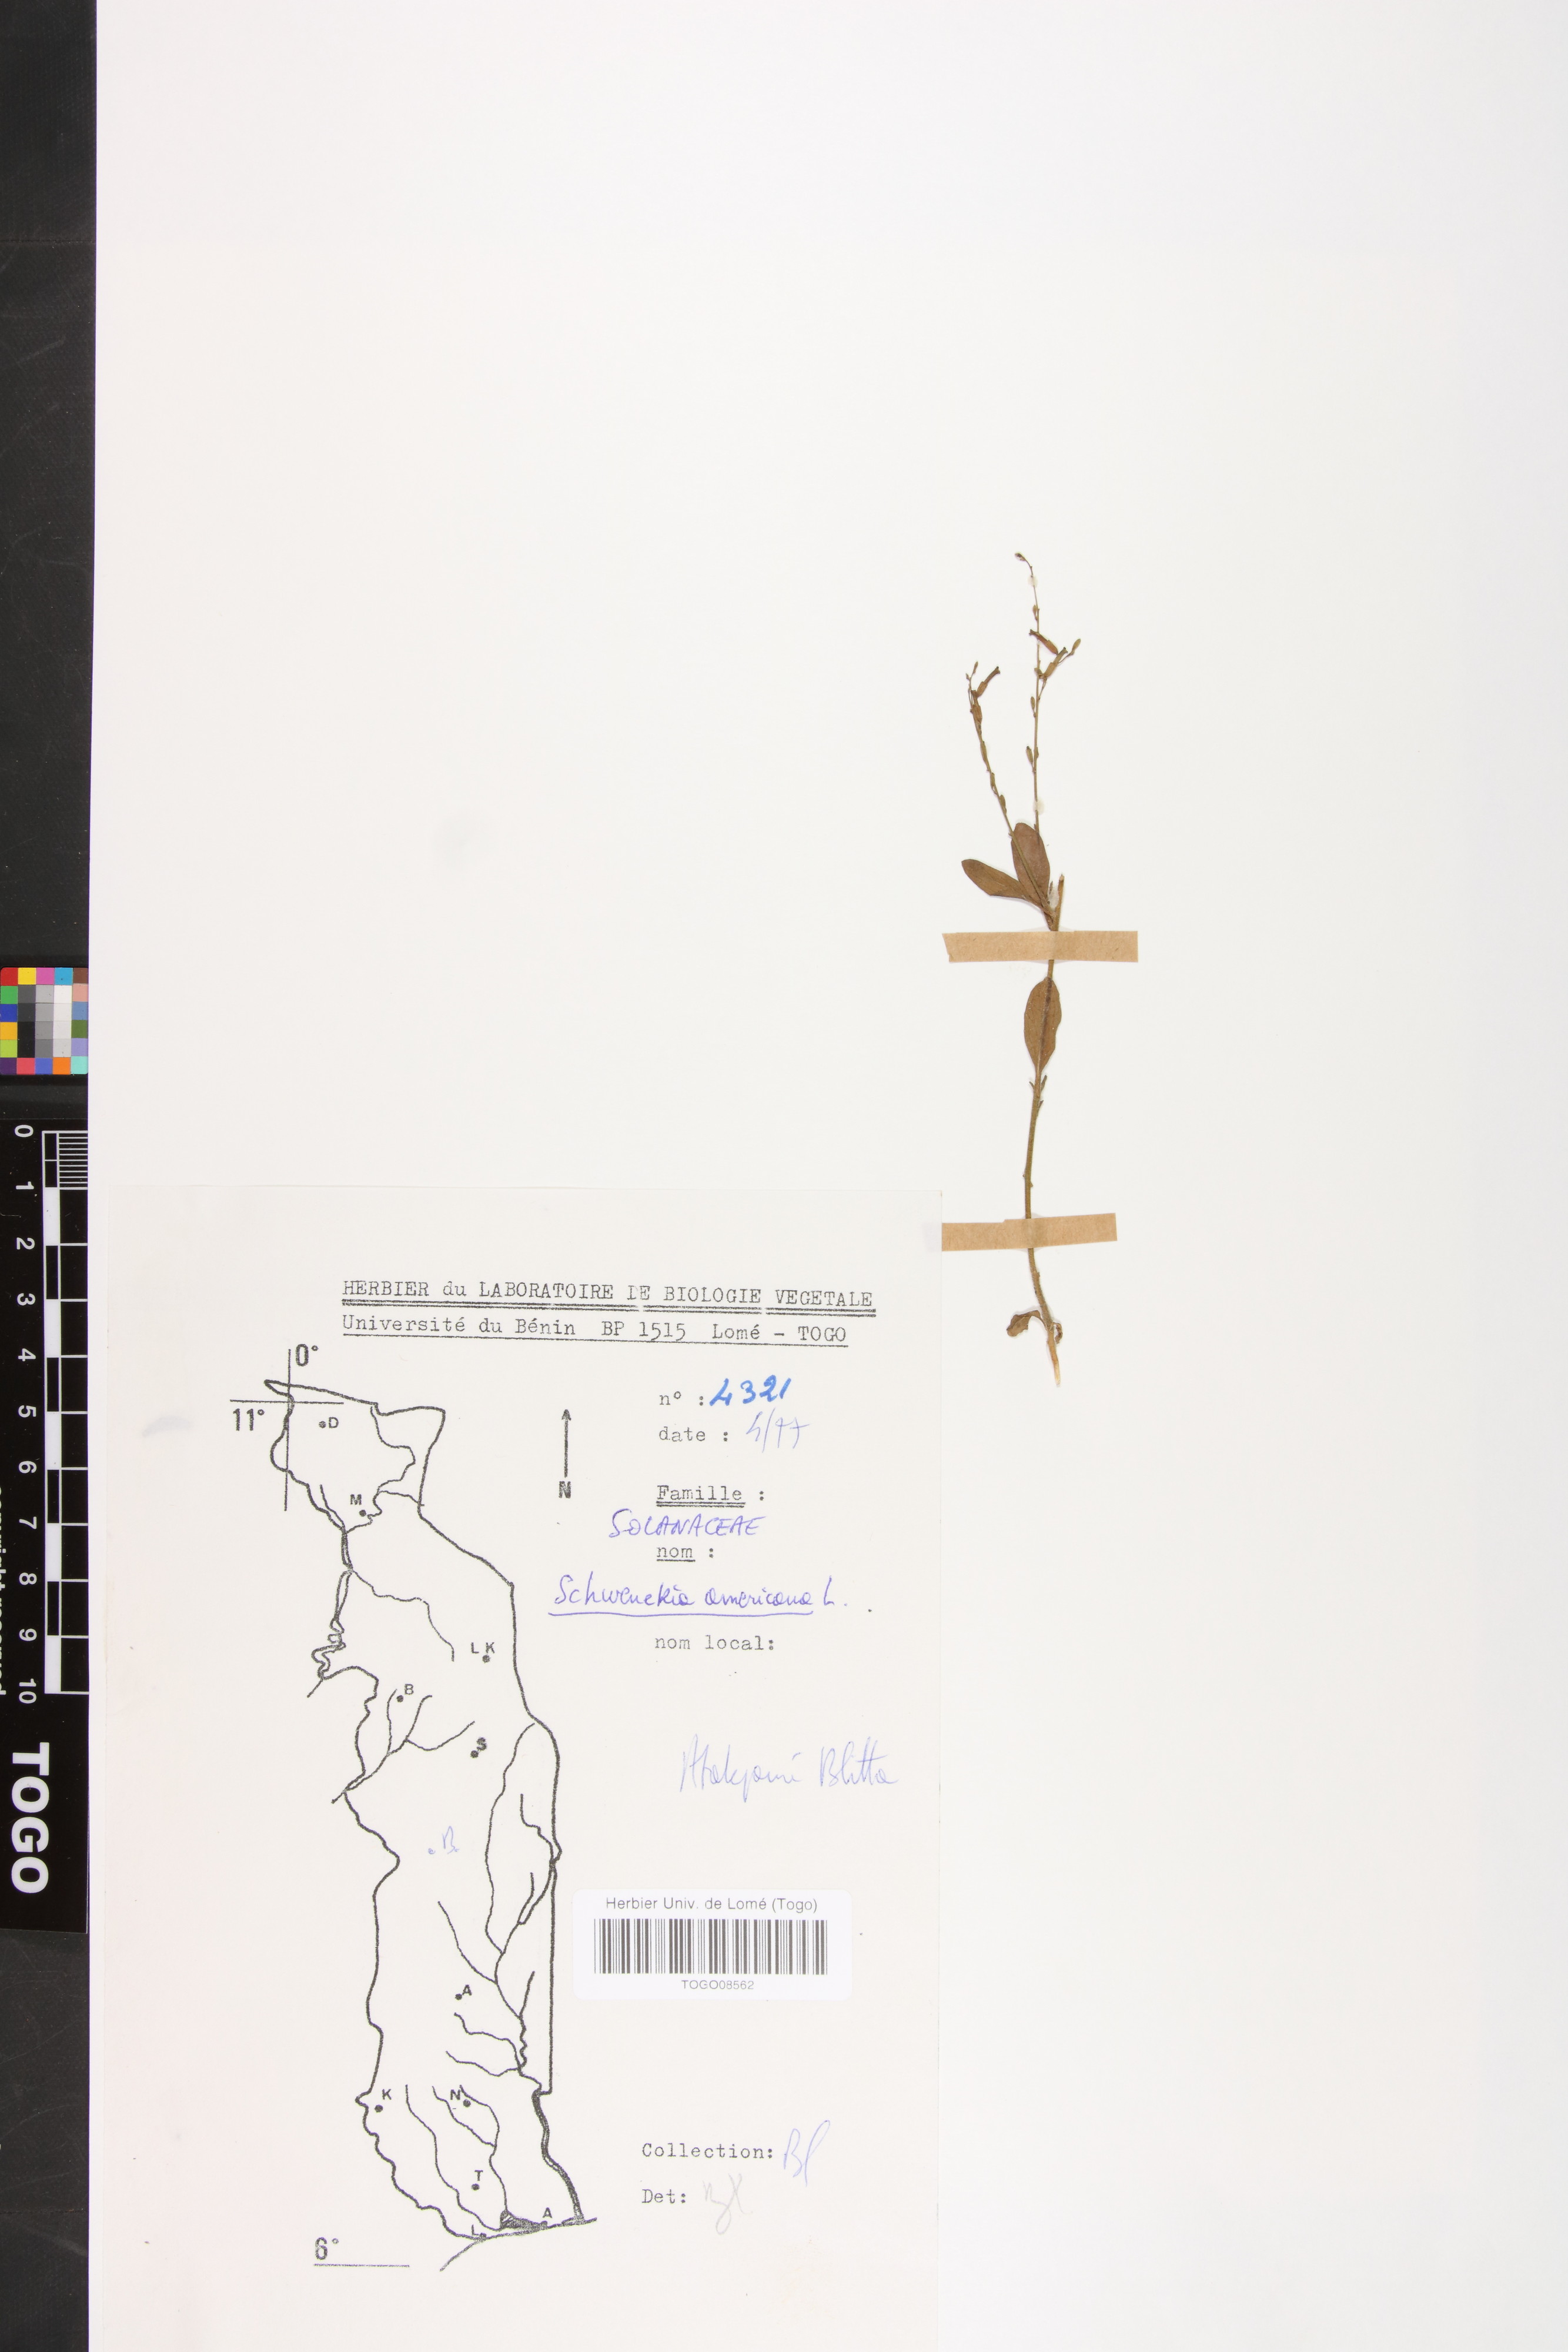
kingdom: Plantae
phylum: Tracheophyta
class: Magnoliopsida
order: Solanales
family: Solanaceae
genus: Schwenckia
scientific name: Schwenckia americana
